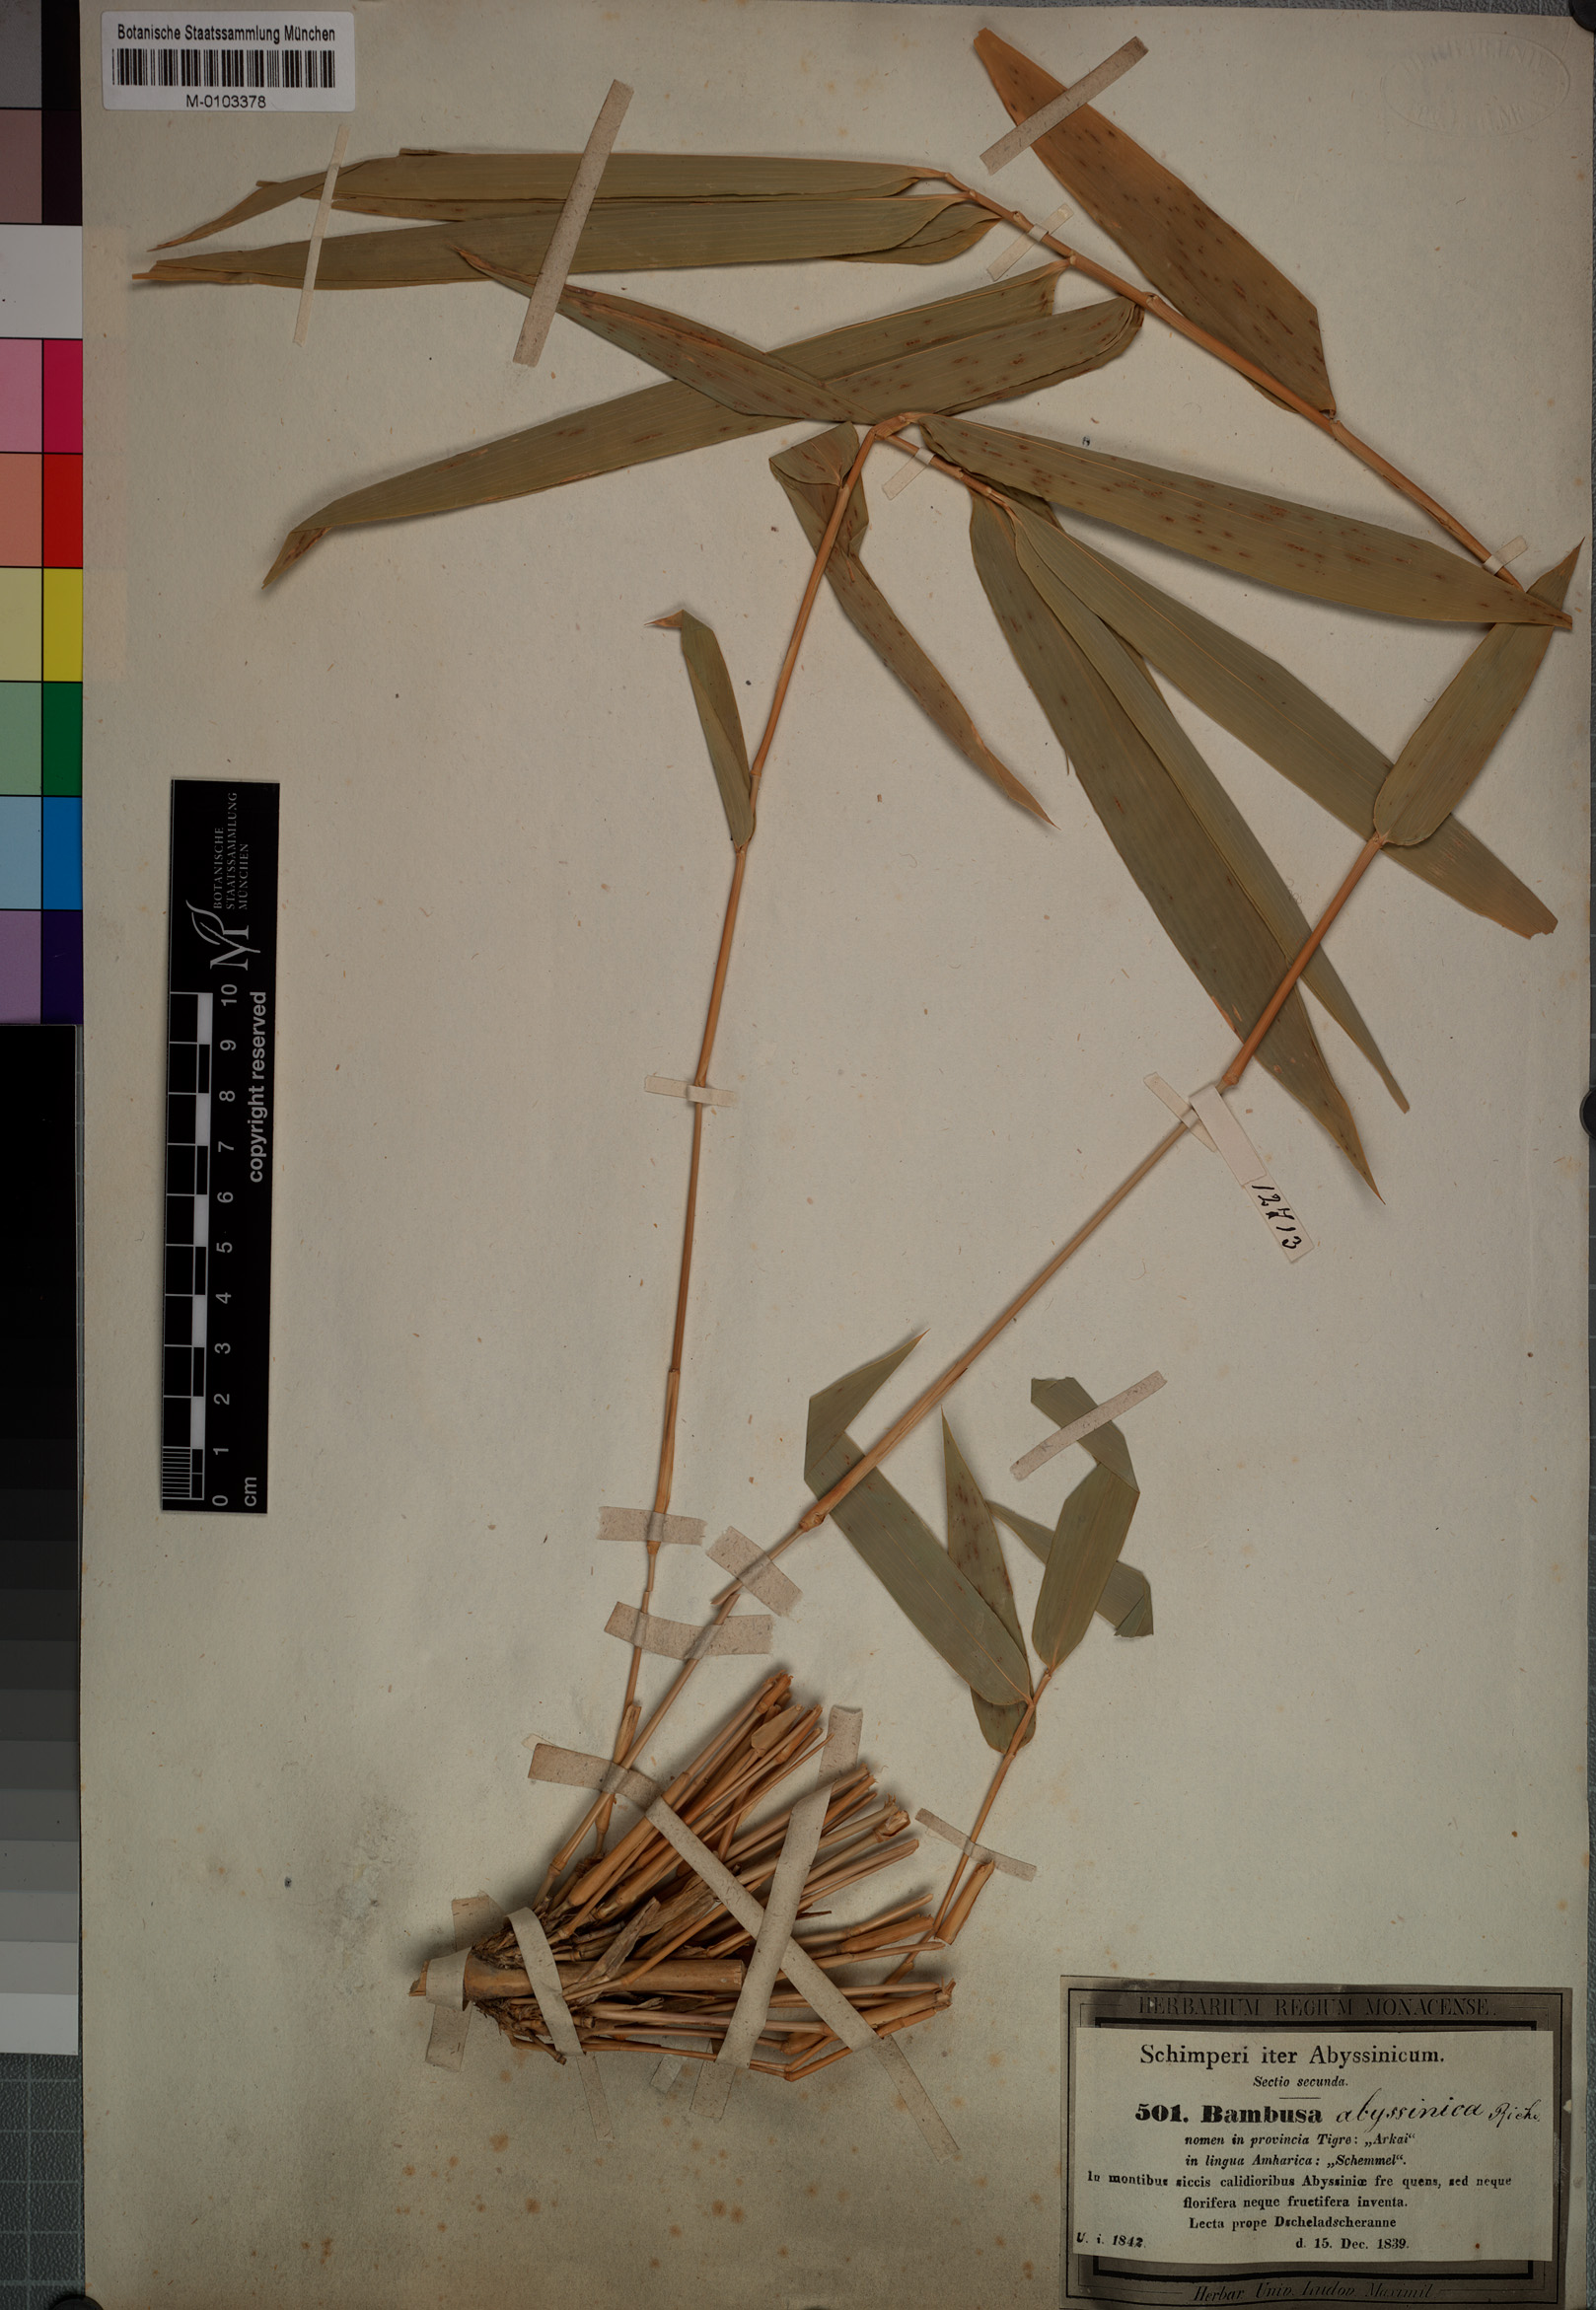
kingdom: Plantae
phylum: Tracheophyta
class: Liliopsida
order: Poales
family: Poaceae
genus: Oxytenanthera
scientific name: Oxytenanthera abyssinica
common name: Wine bamboo
